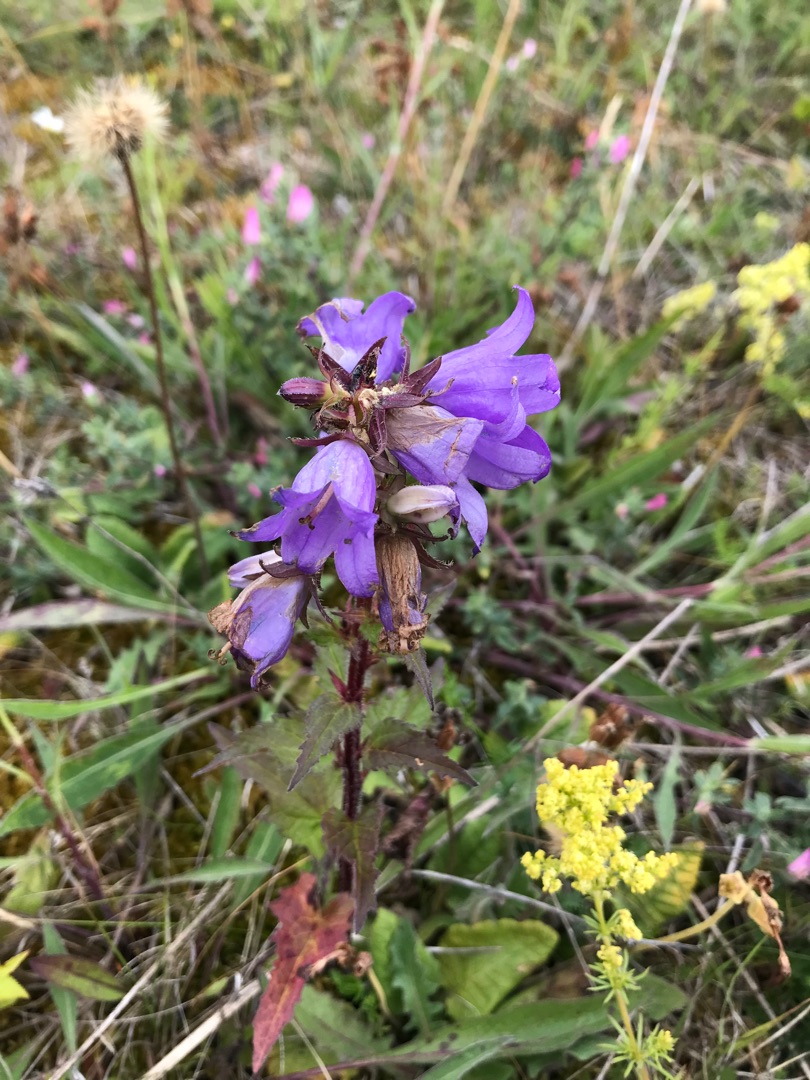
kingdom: Plantae
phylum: Tracheophyta
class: Magnoliopsida
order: Asterales
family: Campanulaceae
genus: Campanula
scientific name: Campanula trachelium
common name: Nælde-klokke
